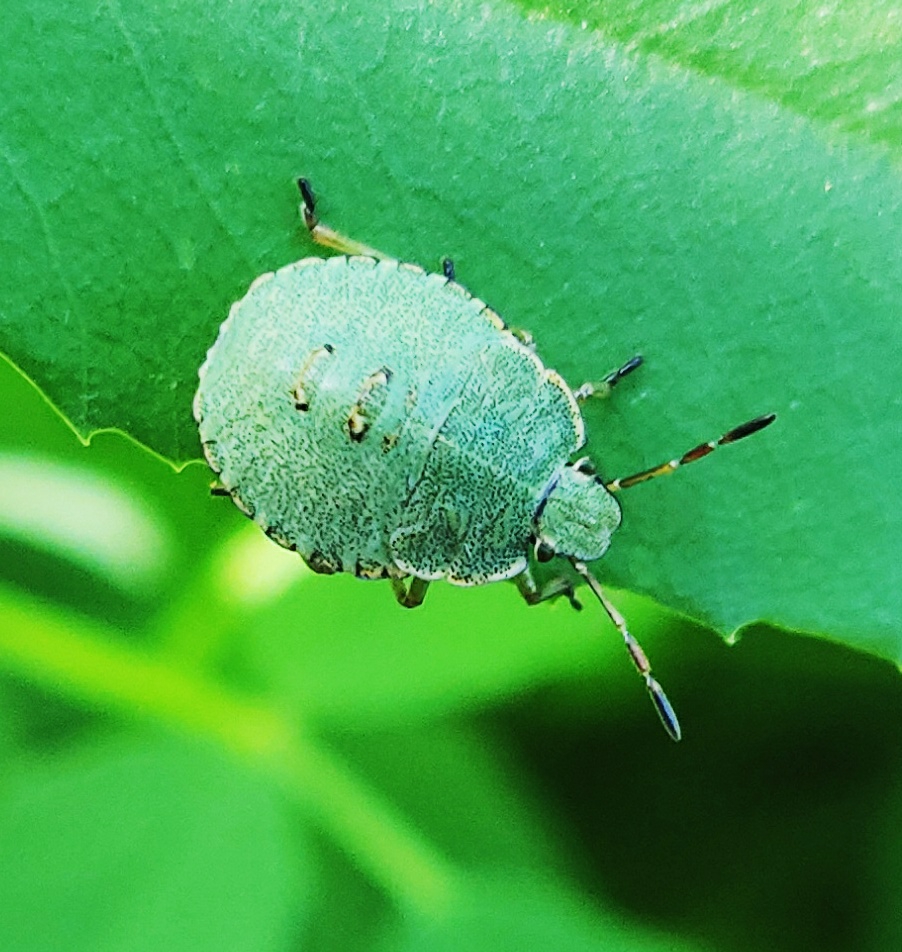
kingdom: Animalia
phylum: Arthropoda
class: Insecta
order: Hemiptera
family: Pentatomidae
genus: Palomena
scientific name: Palomena prasina
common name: Grøn bredtæge
